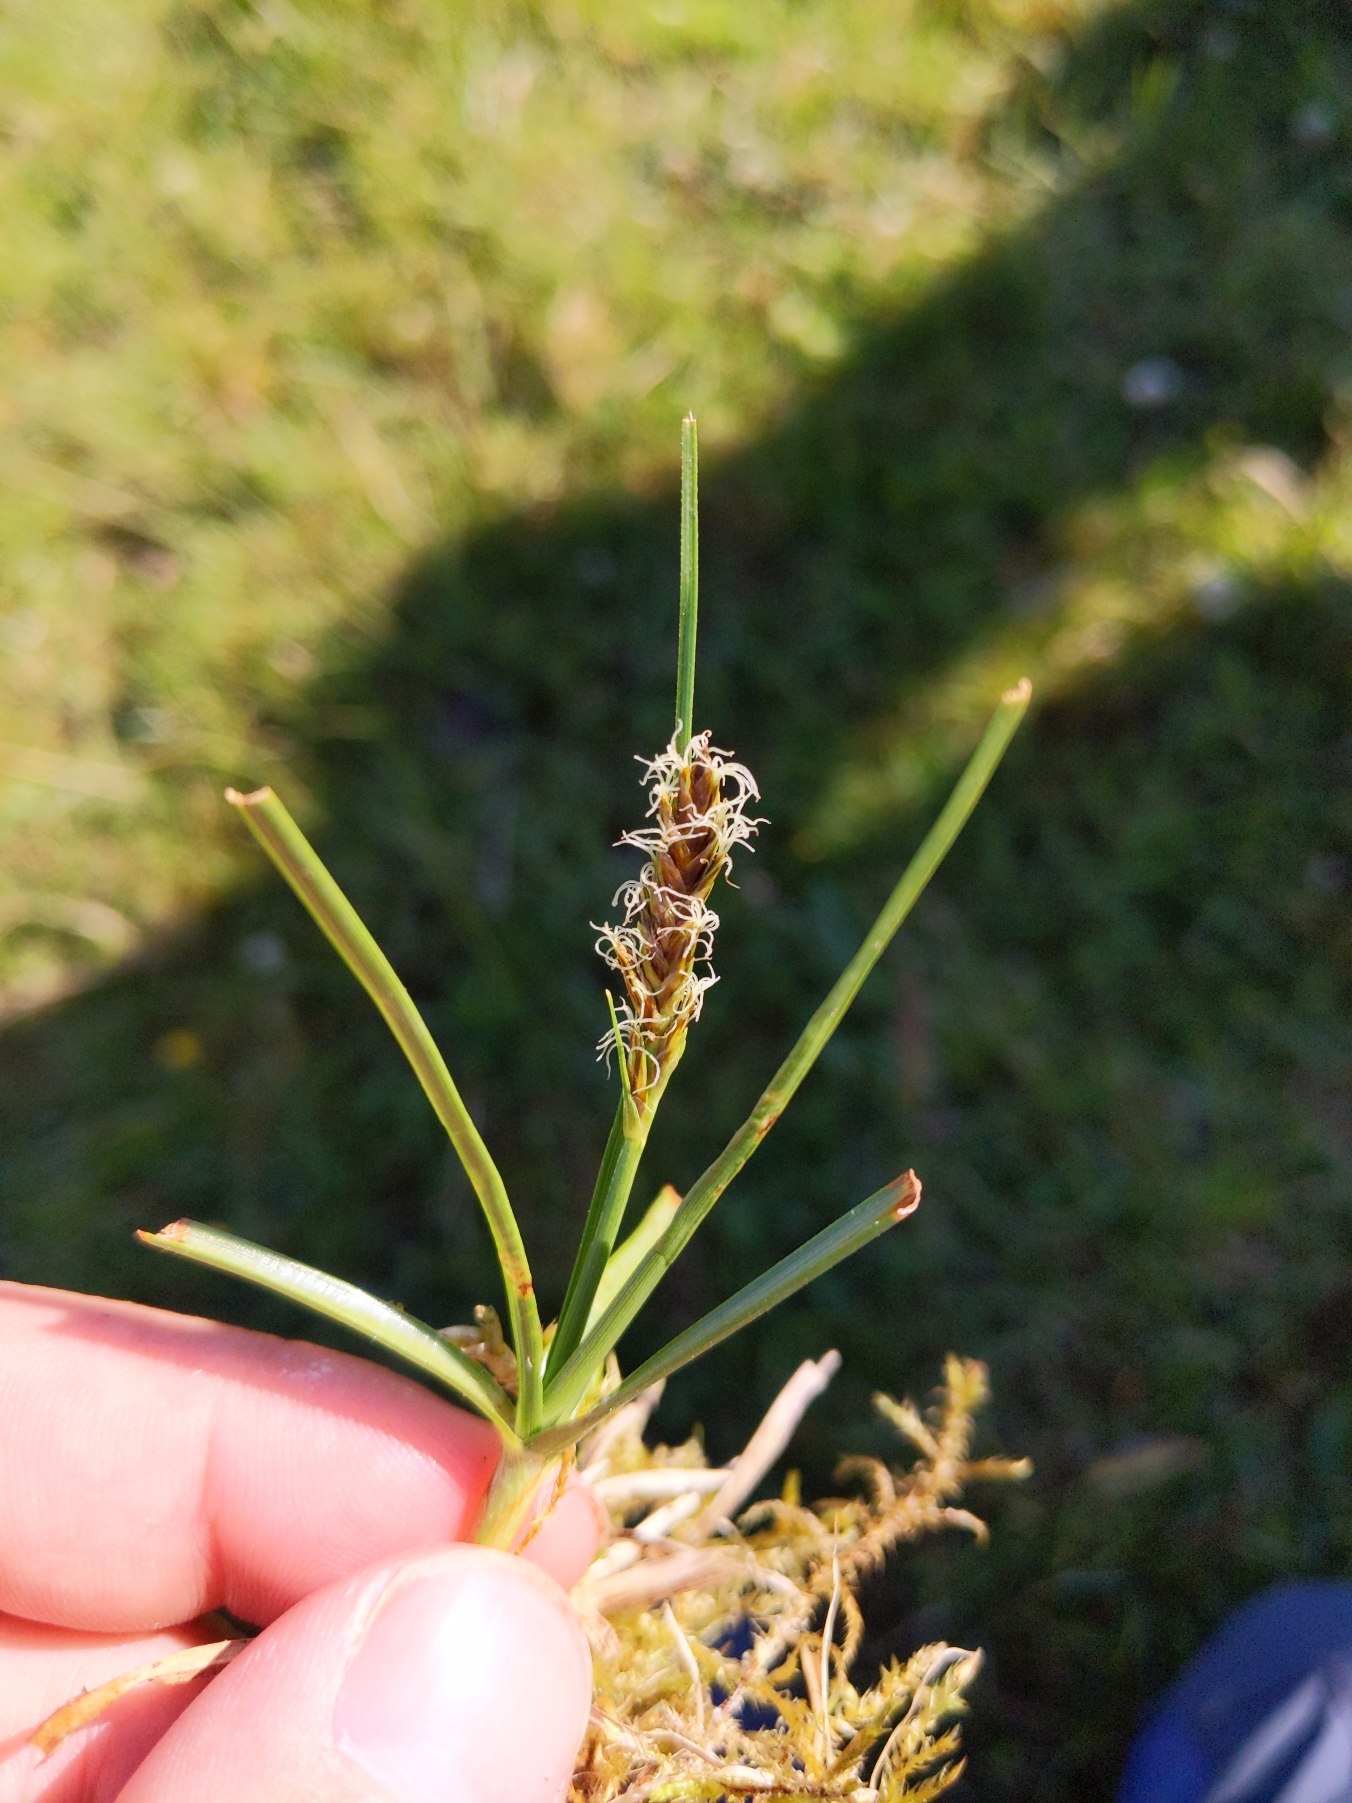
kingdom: Plantae
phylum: Tracheophyta
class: Liliopsida
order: Poales
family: Cyperaceae
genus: Blysmus
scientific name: Blysmus compressus
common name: Fladtrykt kogleaks
